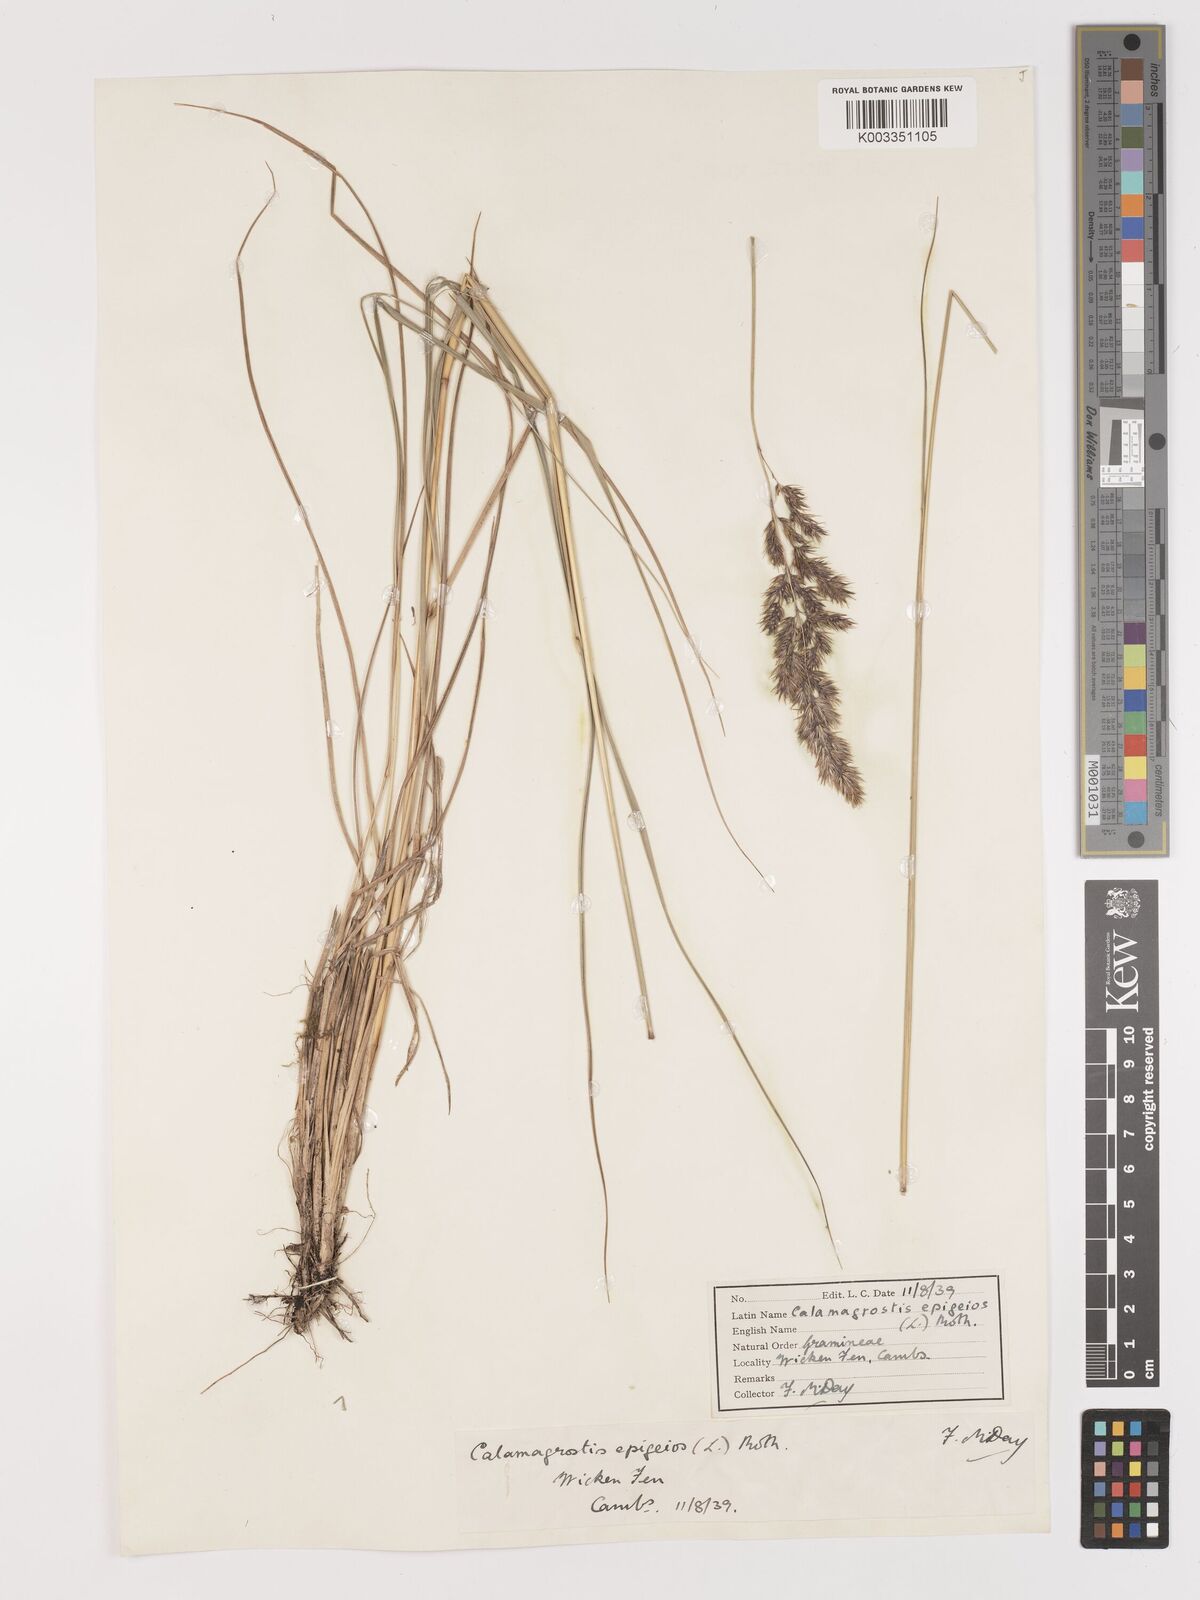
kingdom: Plantae
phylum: Tracheophyta
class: Liliopsida
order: Poales
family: Poaceae
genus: Calamagrostis
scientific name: Calamagrostis
